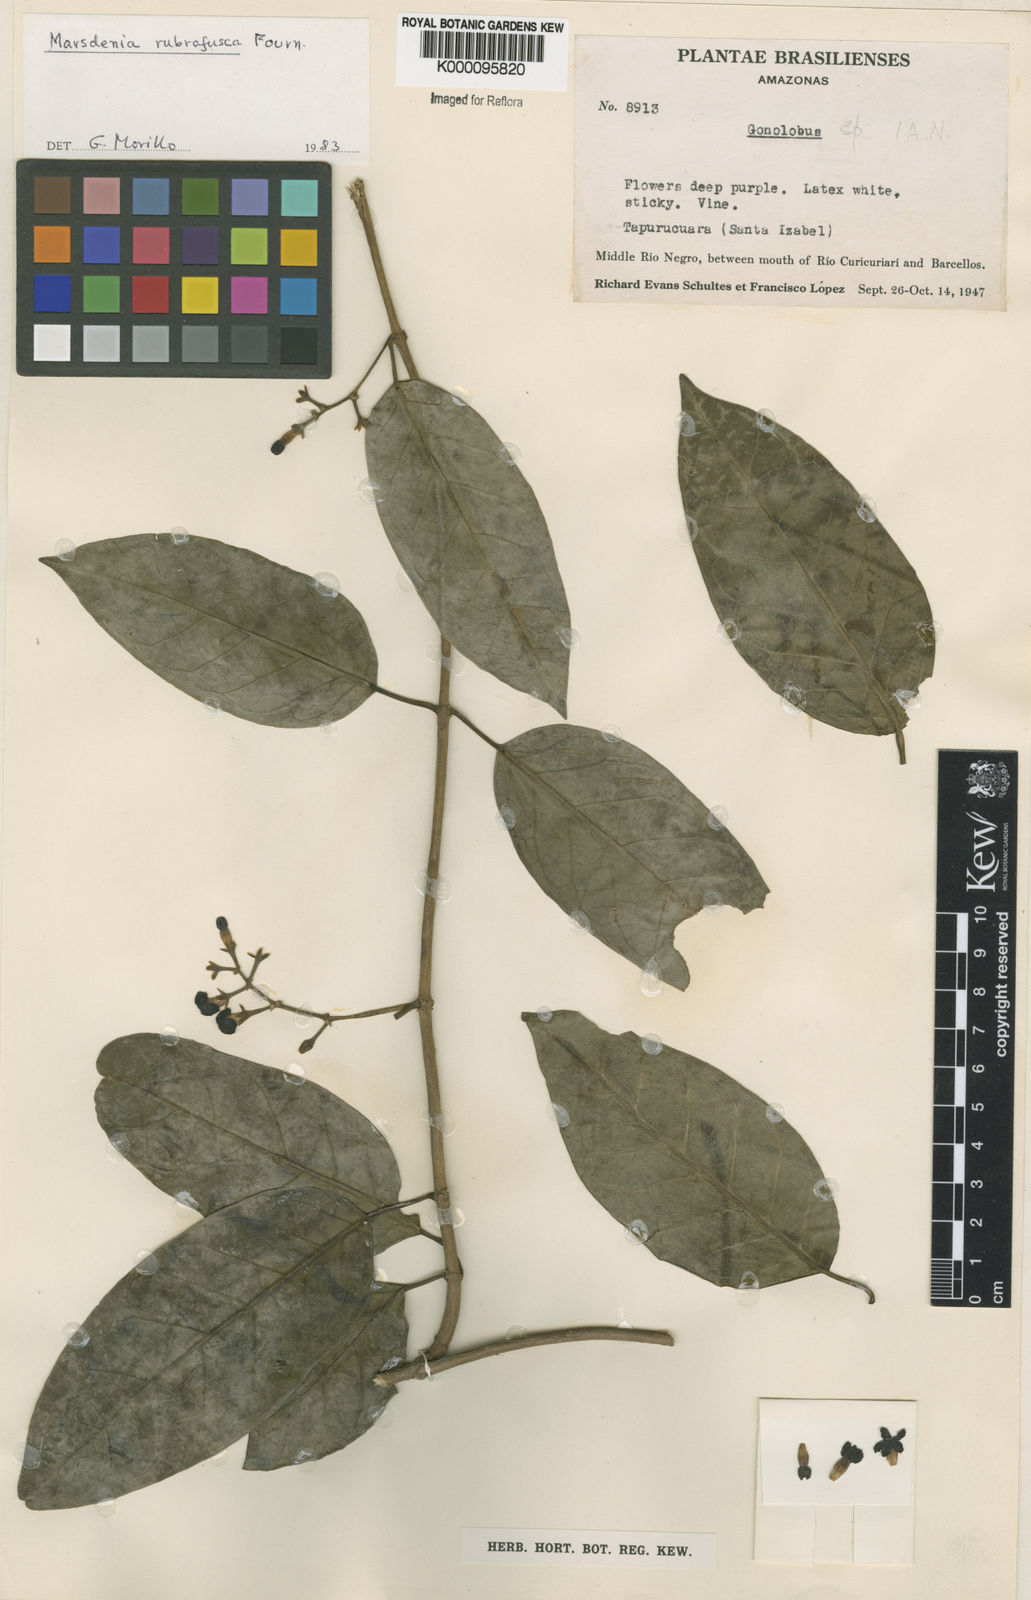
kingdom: Plantae
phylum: Tracheophyta
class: Magnoliopsida
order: Gentianales
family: Apocynaceae
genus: Ruehssia
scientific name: Ruehssia rubrofusca
